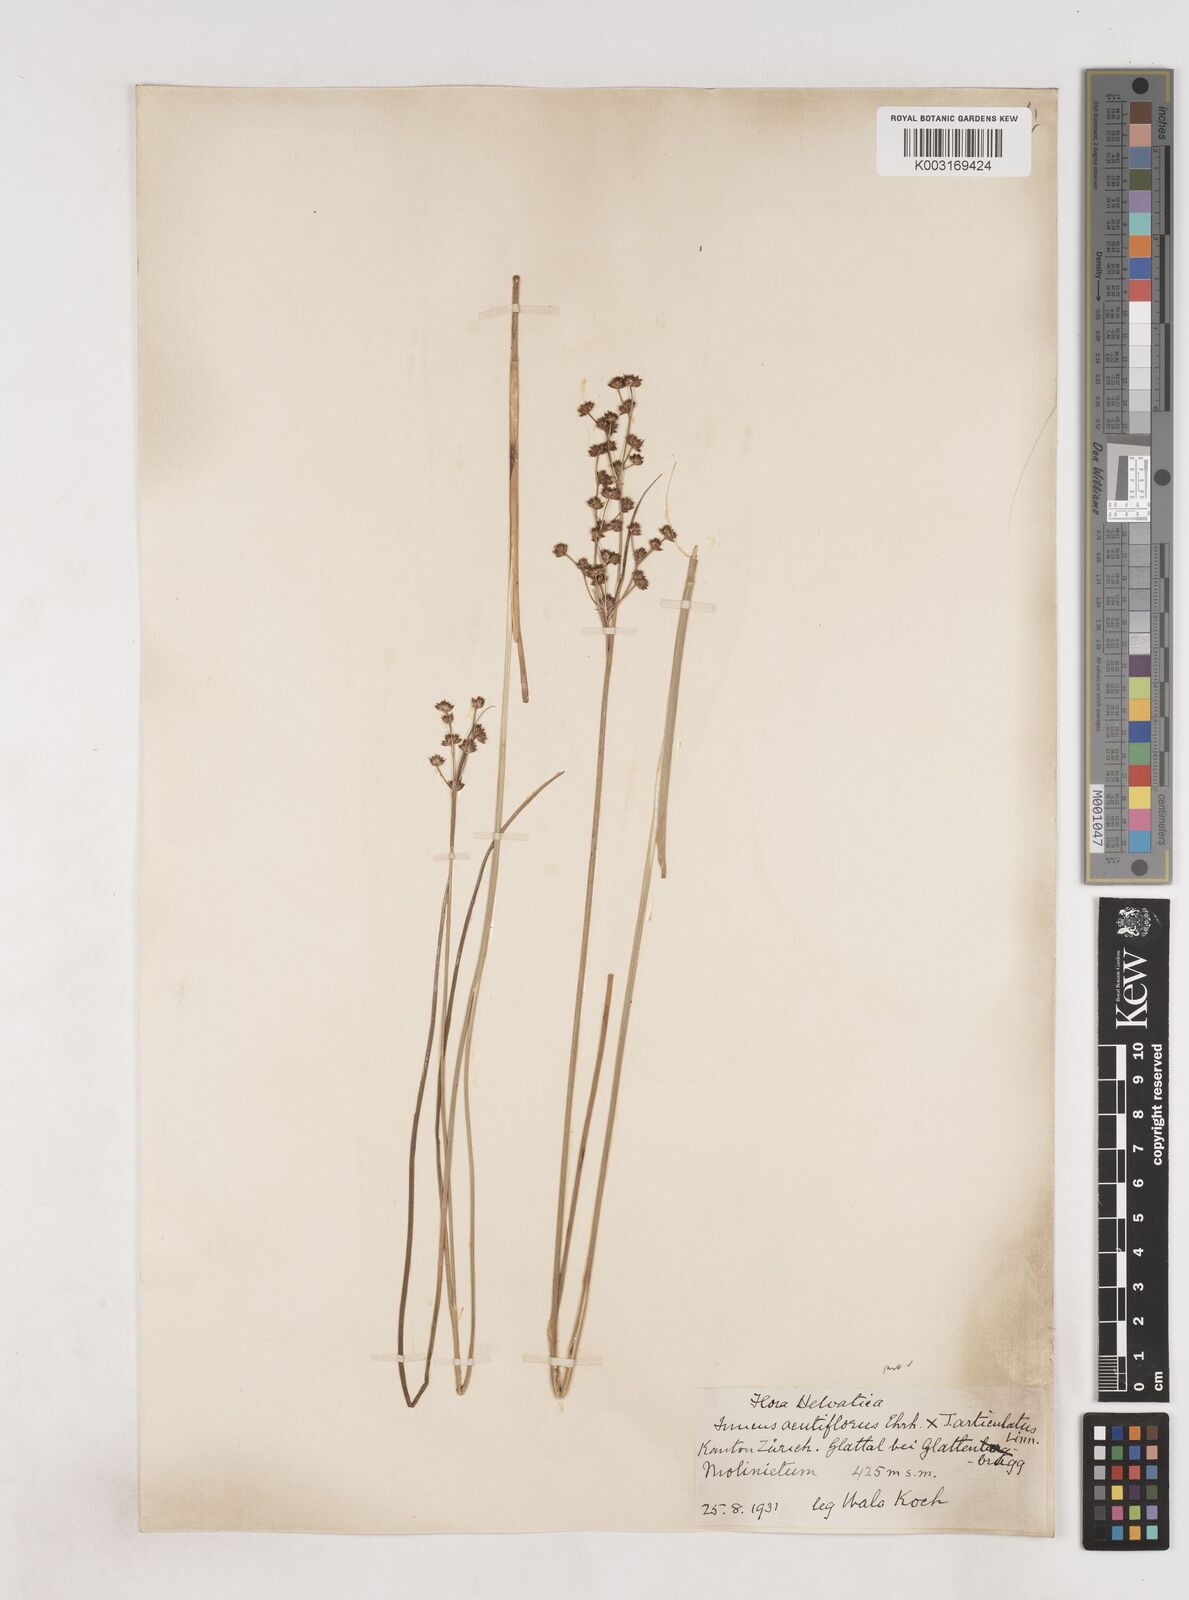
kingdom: Plantae
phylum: Tracheophyta
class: Liliopsida
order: Poales
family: Juncaceae
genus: Juncus
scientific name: Juncus acutiflorus
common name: Sharp-flowered rush
